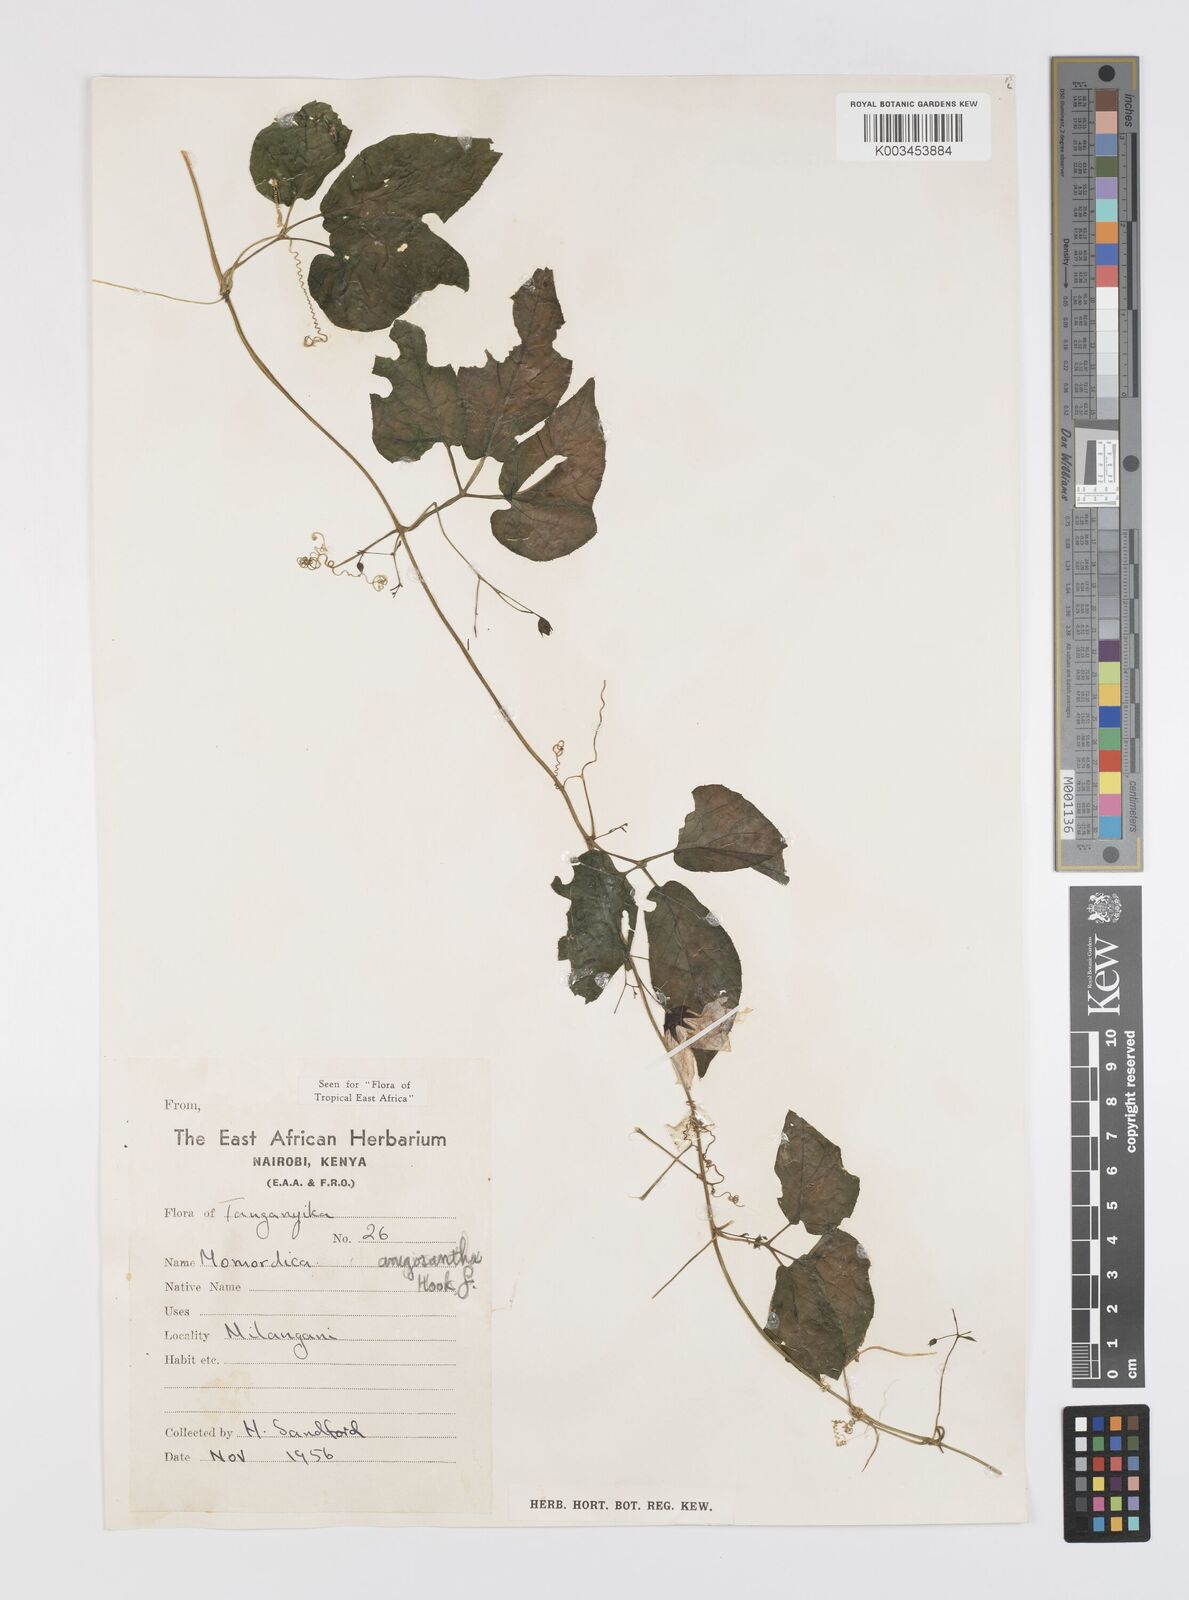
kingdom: Plantae
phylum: Tracheophyta
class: Magnoliopsida
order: Cucurbitales
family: Cucurbitaceae
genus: Momordica
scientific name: Momordica anigosantha
